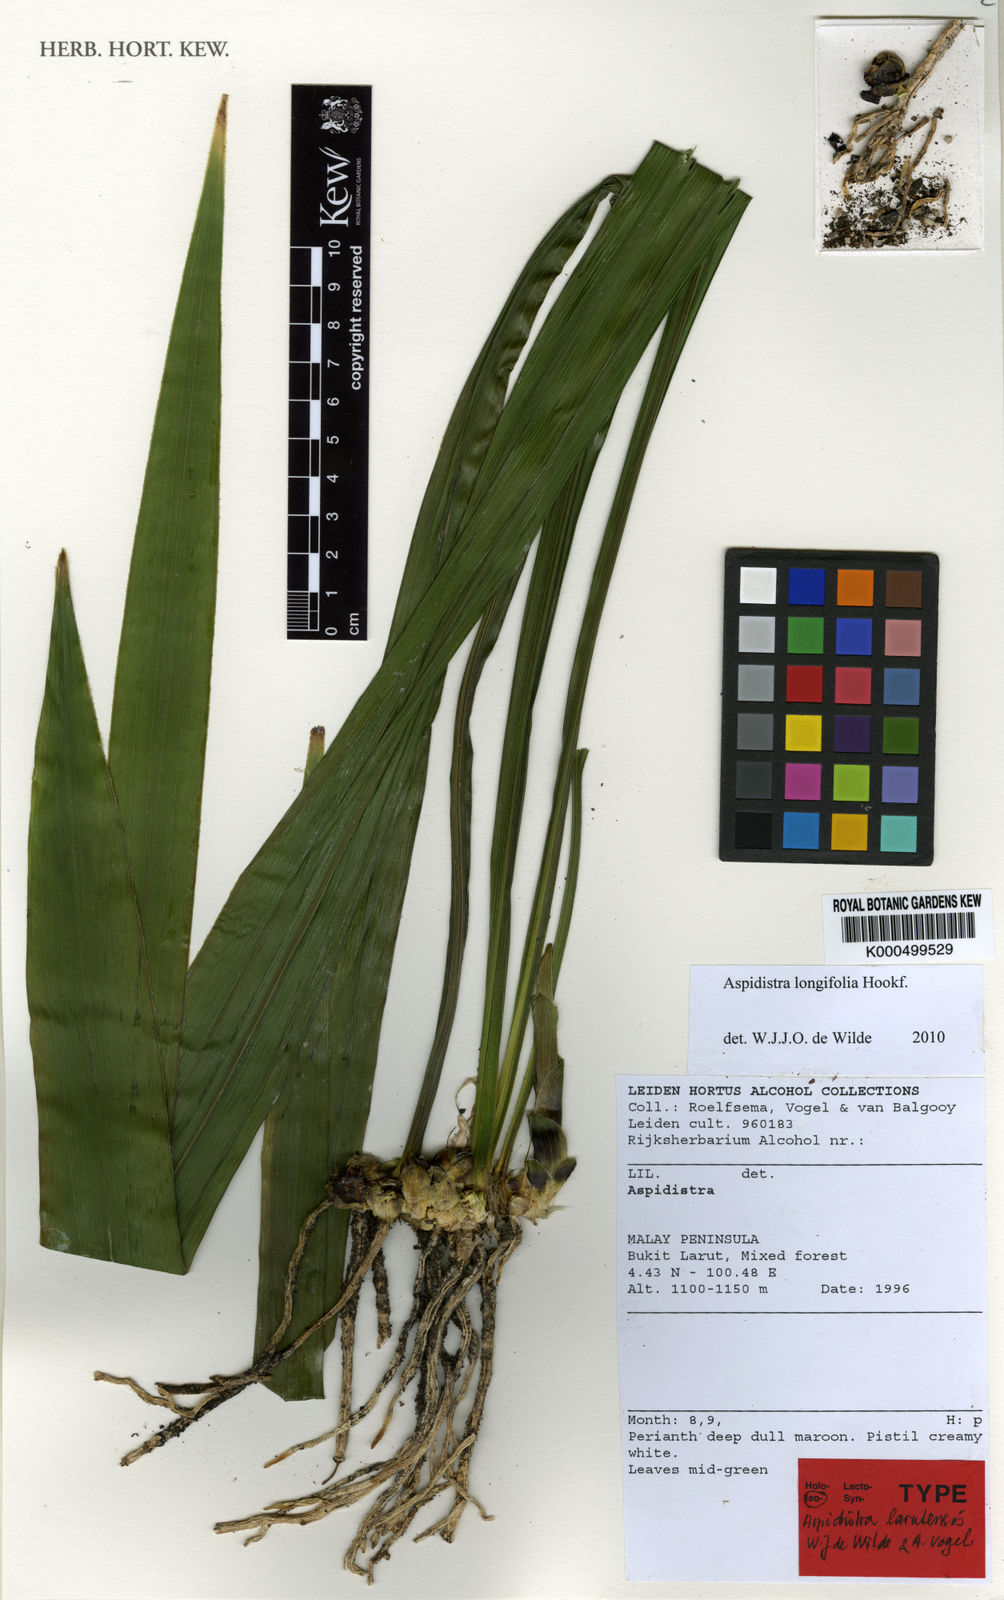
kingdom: Plantae
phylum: Tracheophyta
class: Liliopsida
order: Asparagales
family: Asparagaceae
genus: Aspidistra
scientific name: Aspidistra longifolia
